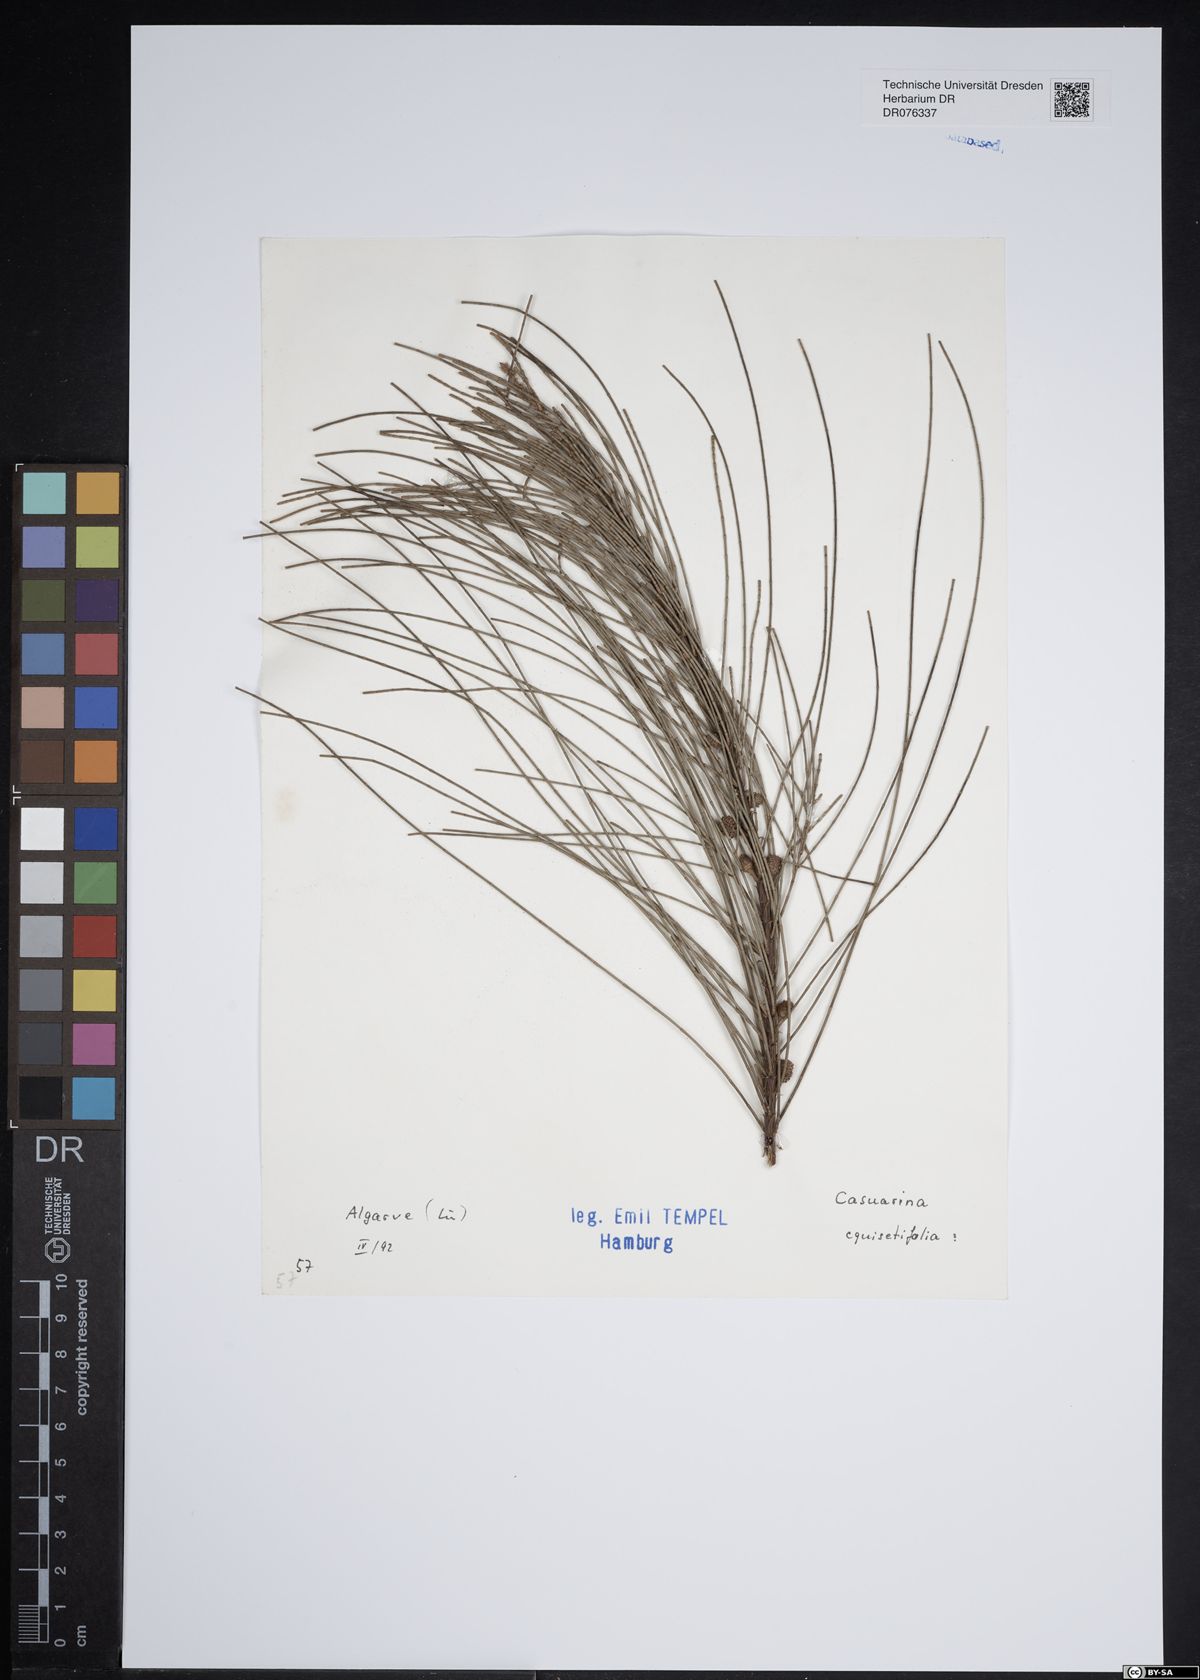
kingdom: Plantae
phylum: Tracheophyta
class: Magnoliopsida
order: Fagales
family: Casuarinaceae
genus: Casuarina
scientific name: Casuarina equisetifolia
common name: Beach sheoak
